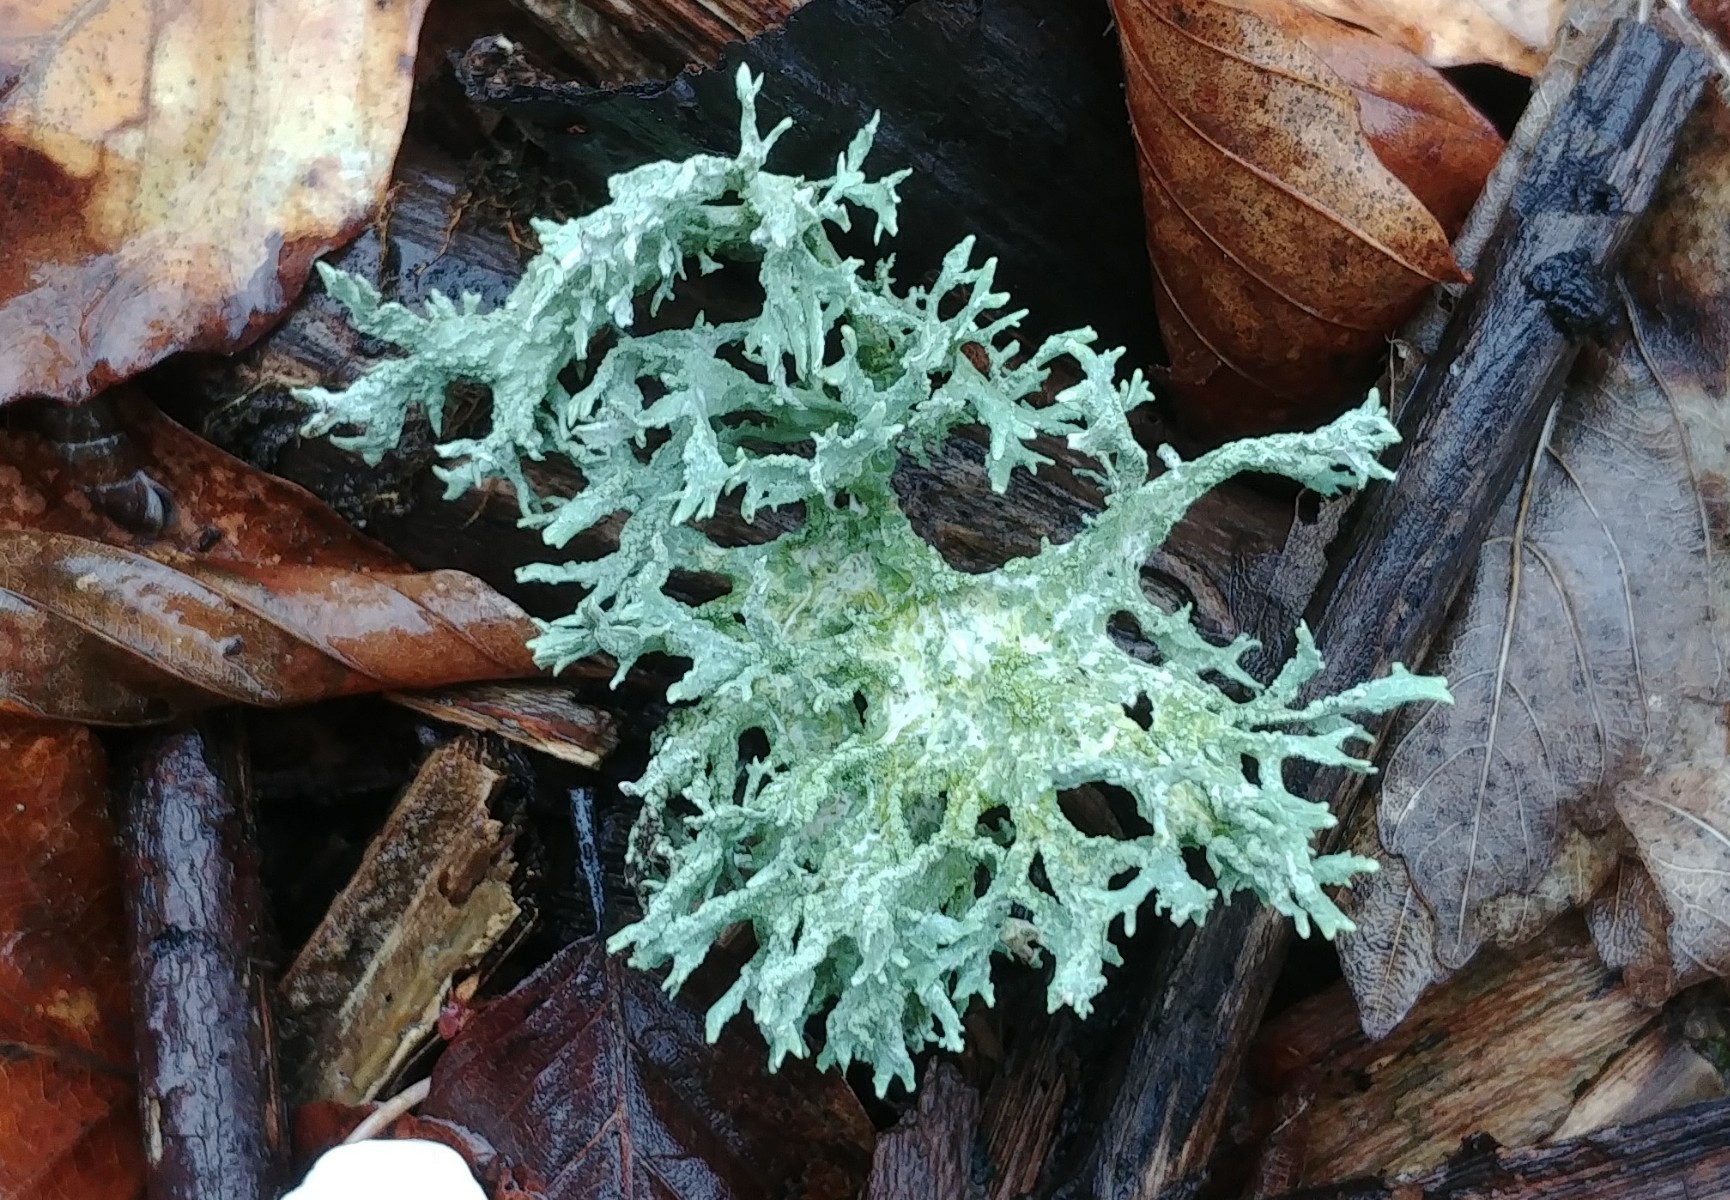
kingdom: Fungi
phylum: Ascomycota
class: Lecanoromycetes
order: Lecanorales
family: Parmeliaceae
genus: Evernia
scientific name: Evernia prunastri
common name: almindelig slåenlav
